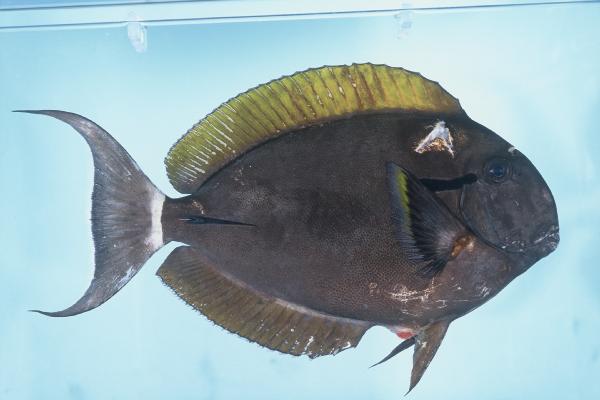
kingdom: Animalia
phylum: Chordata
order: Perciformes
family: Acanthuridae
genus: Acanthurus
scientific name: Acanthurus nigricauda
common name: Black-barred surgeonfish
